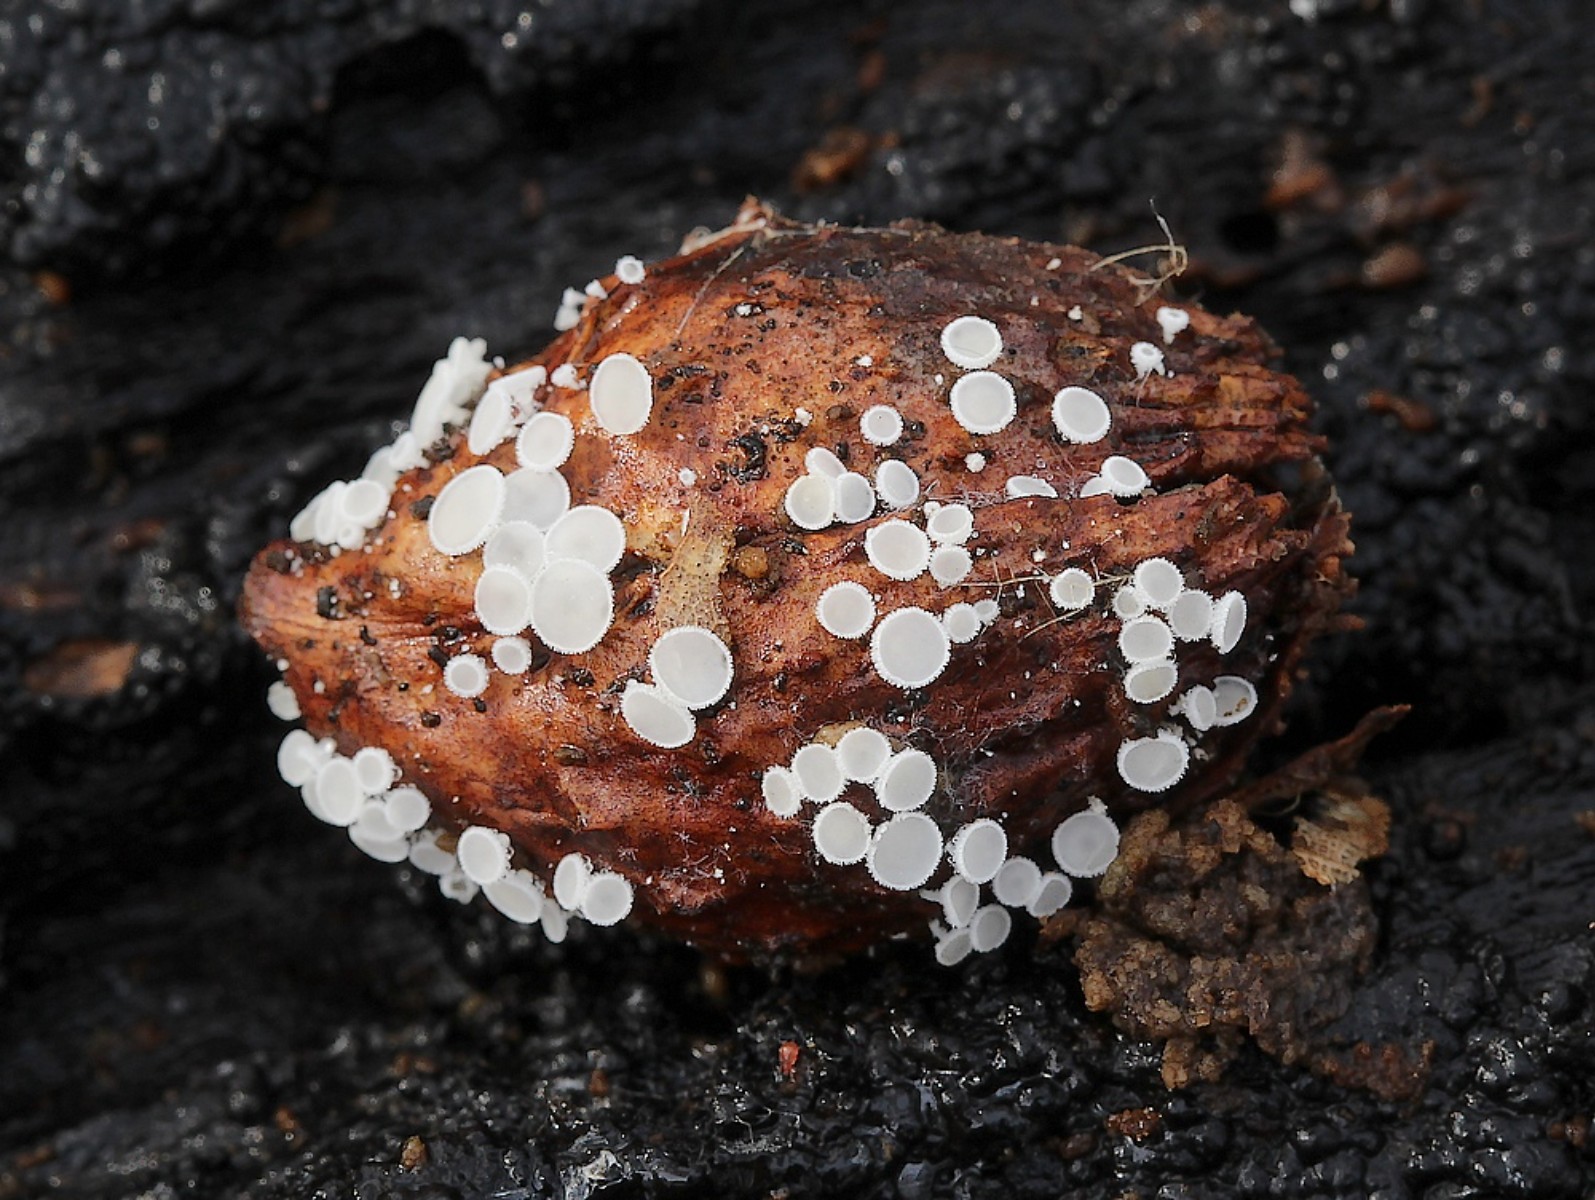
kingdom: Fungi
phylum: Ascomycota
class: Leotiomycetes
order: Helotiales
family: Lachnaceae
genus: Lachnum
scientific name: Lachnum
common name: frynseskive
